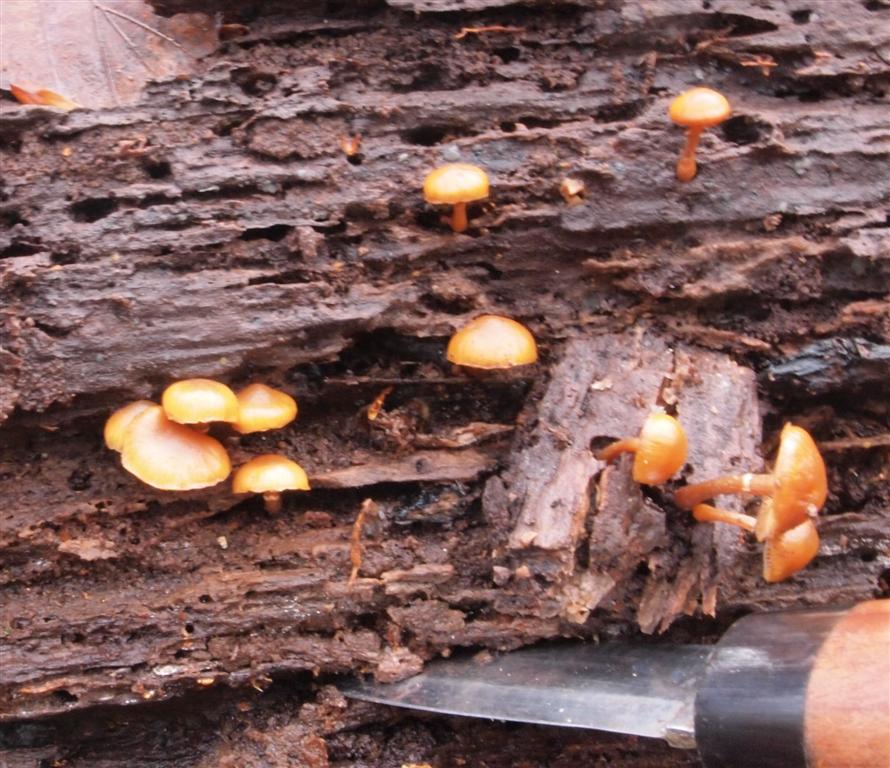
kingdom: Fungi
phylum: Basidiomycota
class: Agaricomycetes
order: Agaricales
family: Hymenogastraceae
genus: Galerina
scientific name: Galerina marginata
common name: randbæltet hjelmhat
